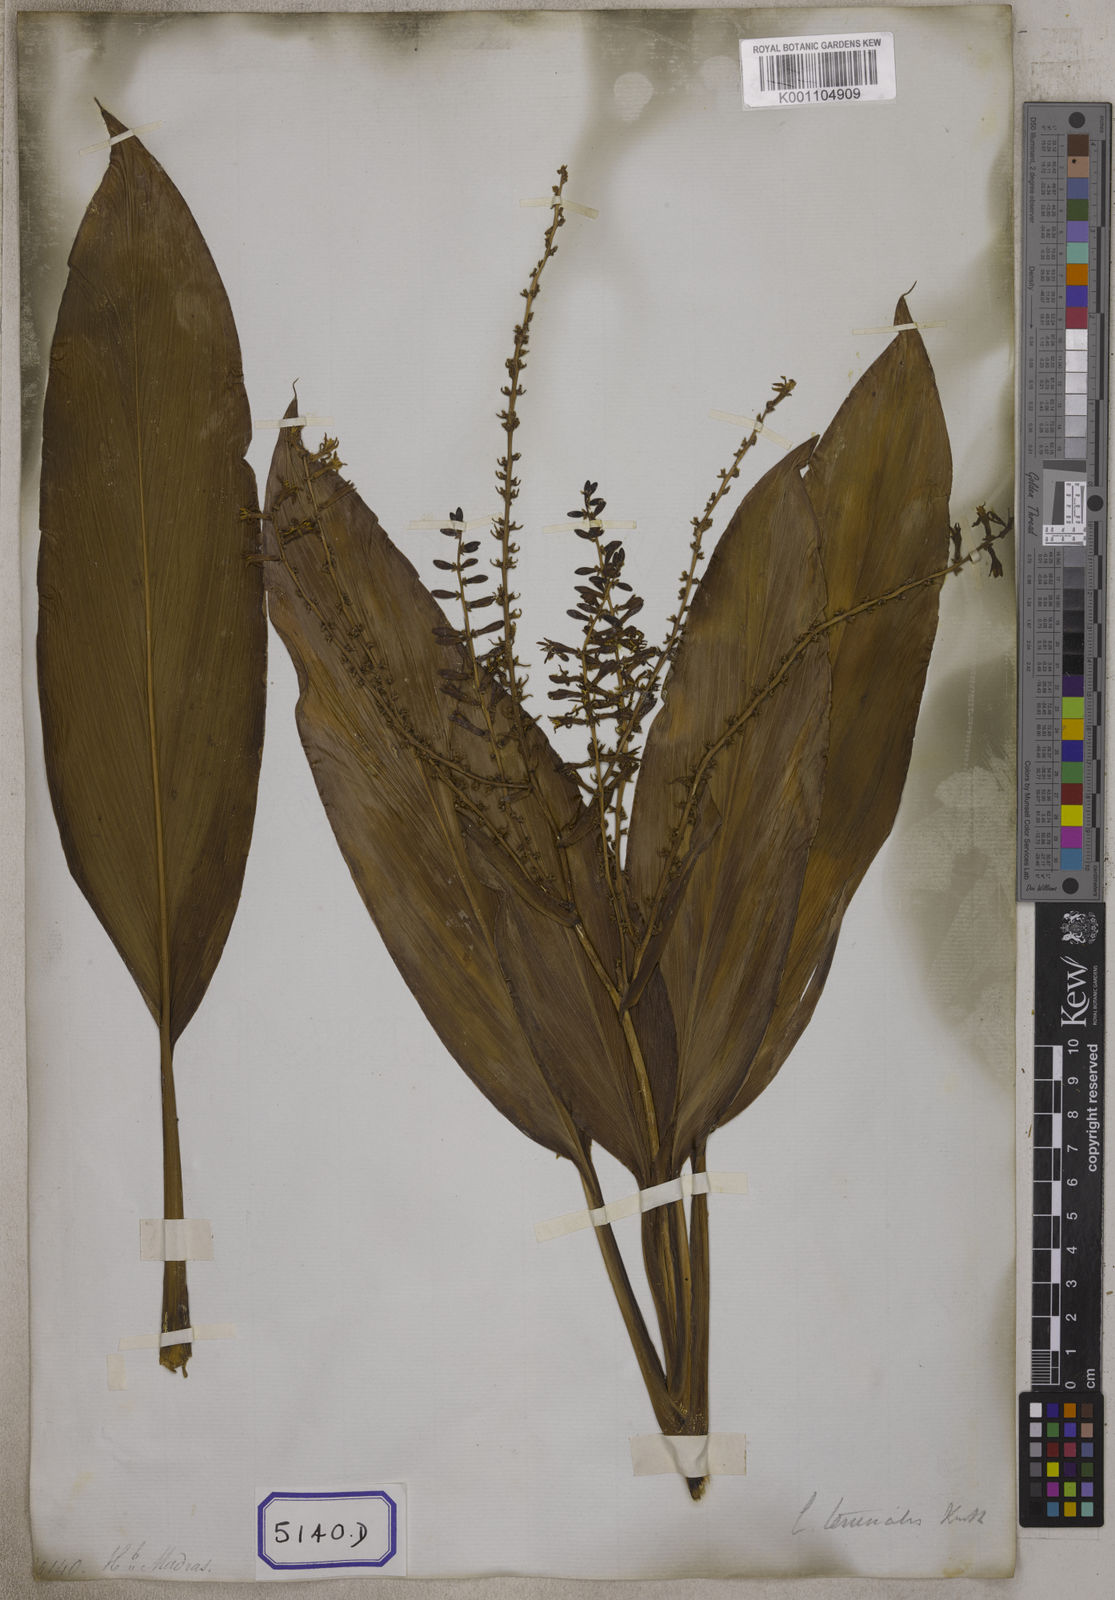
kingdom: Plantae
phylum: Tracheophyta
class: Liliopsida
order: Asparagales
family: Asparagaceae
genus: Cordyline
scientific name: Cordyline fruticosa
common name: Good-luck-plant
